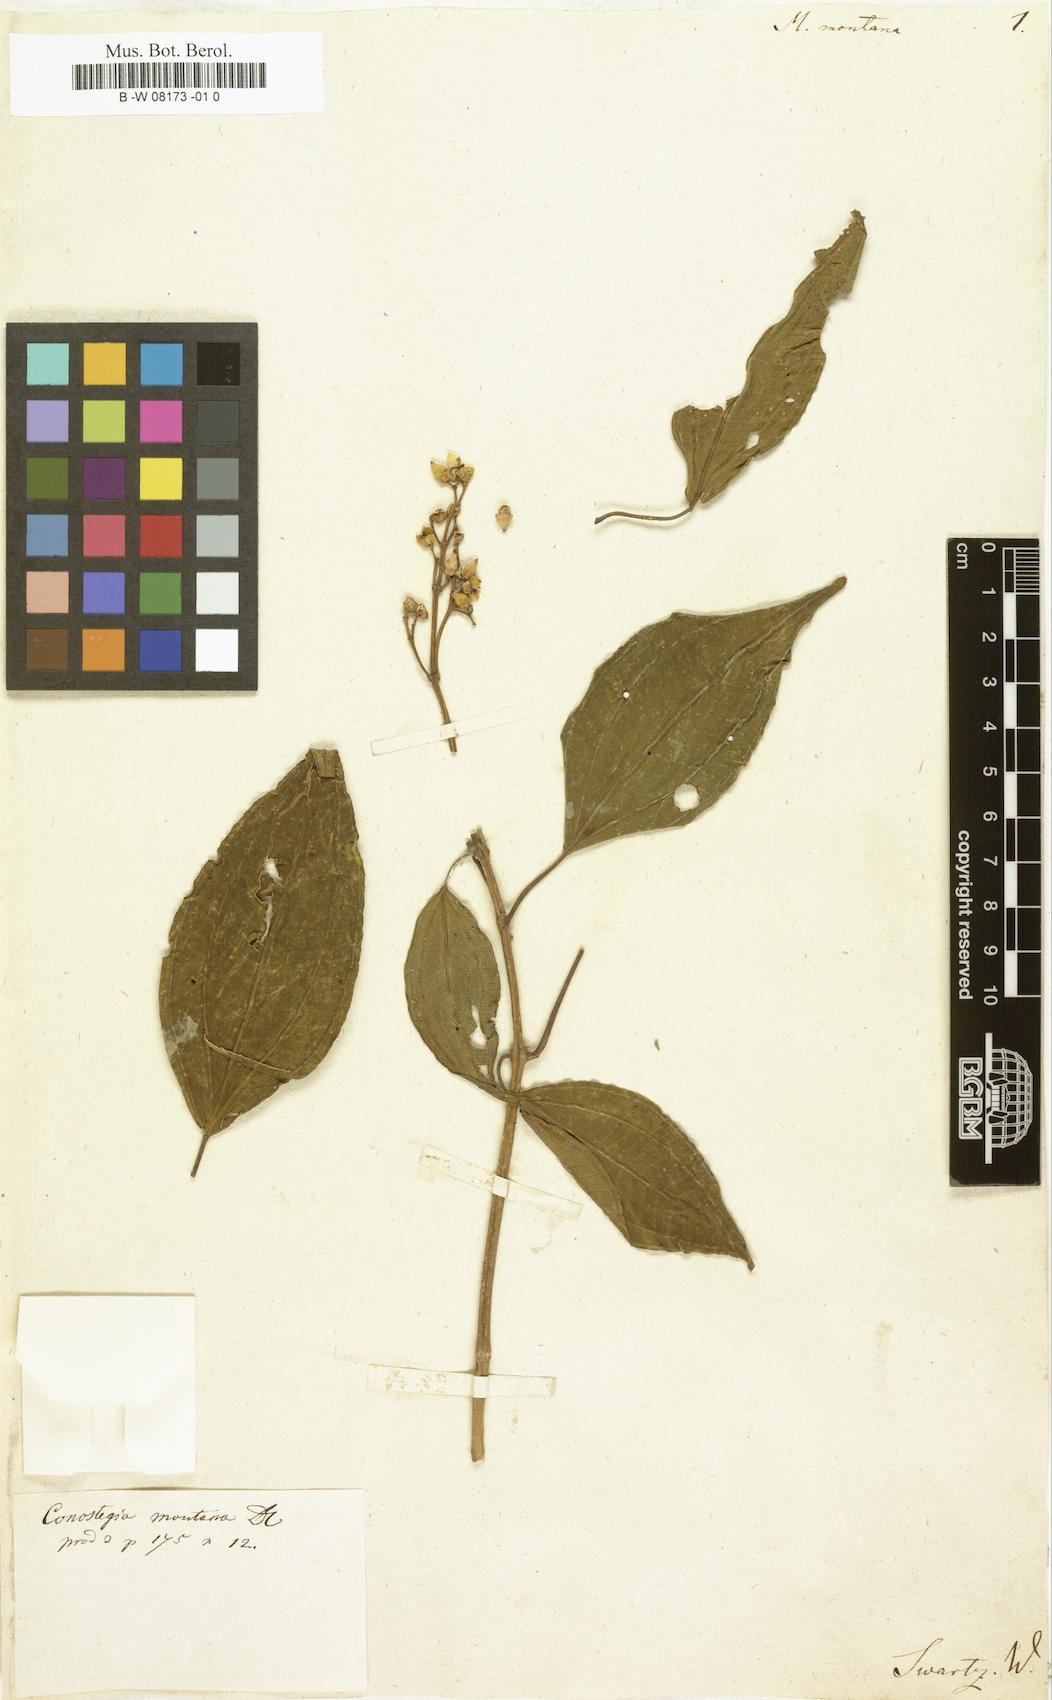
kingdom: Plantae
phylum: Tracheophyta
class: Magnoliopsida
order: Myrtales
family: Melastomataceae
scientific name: Melastomataceae
